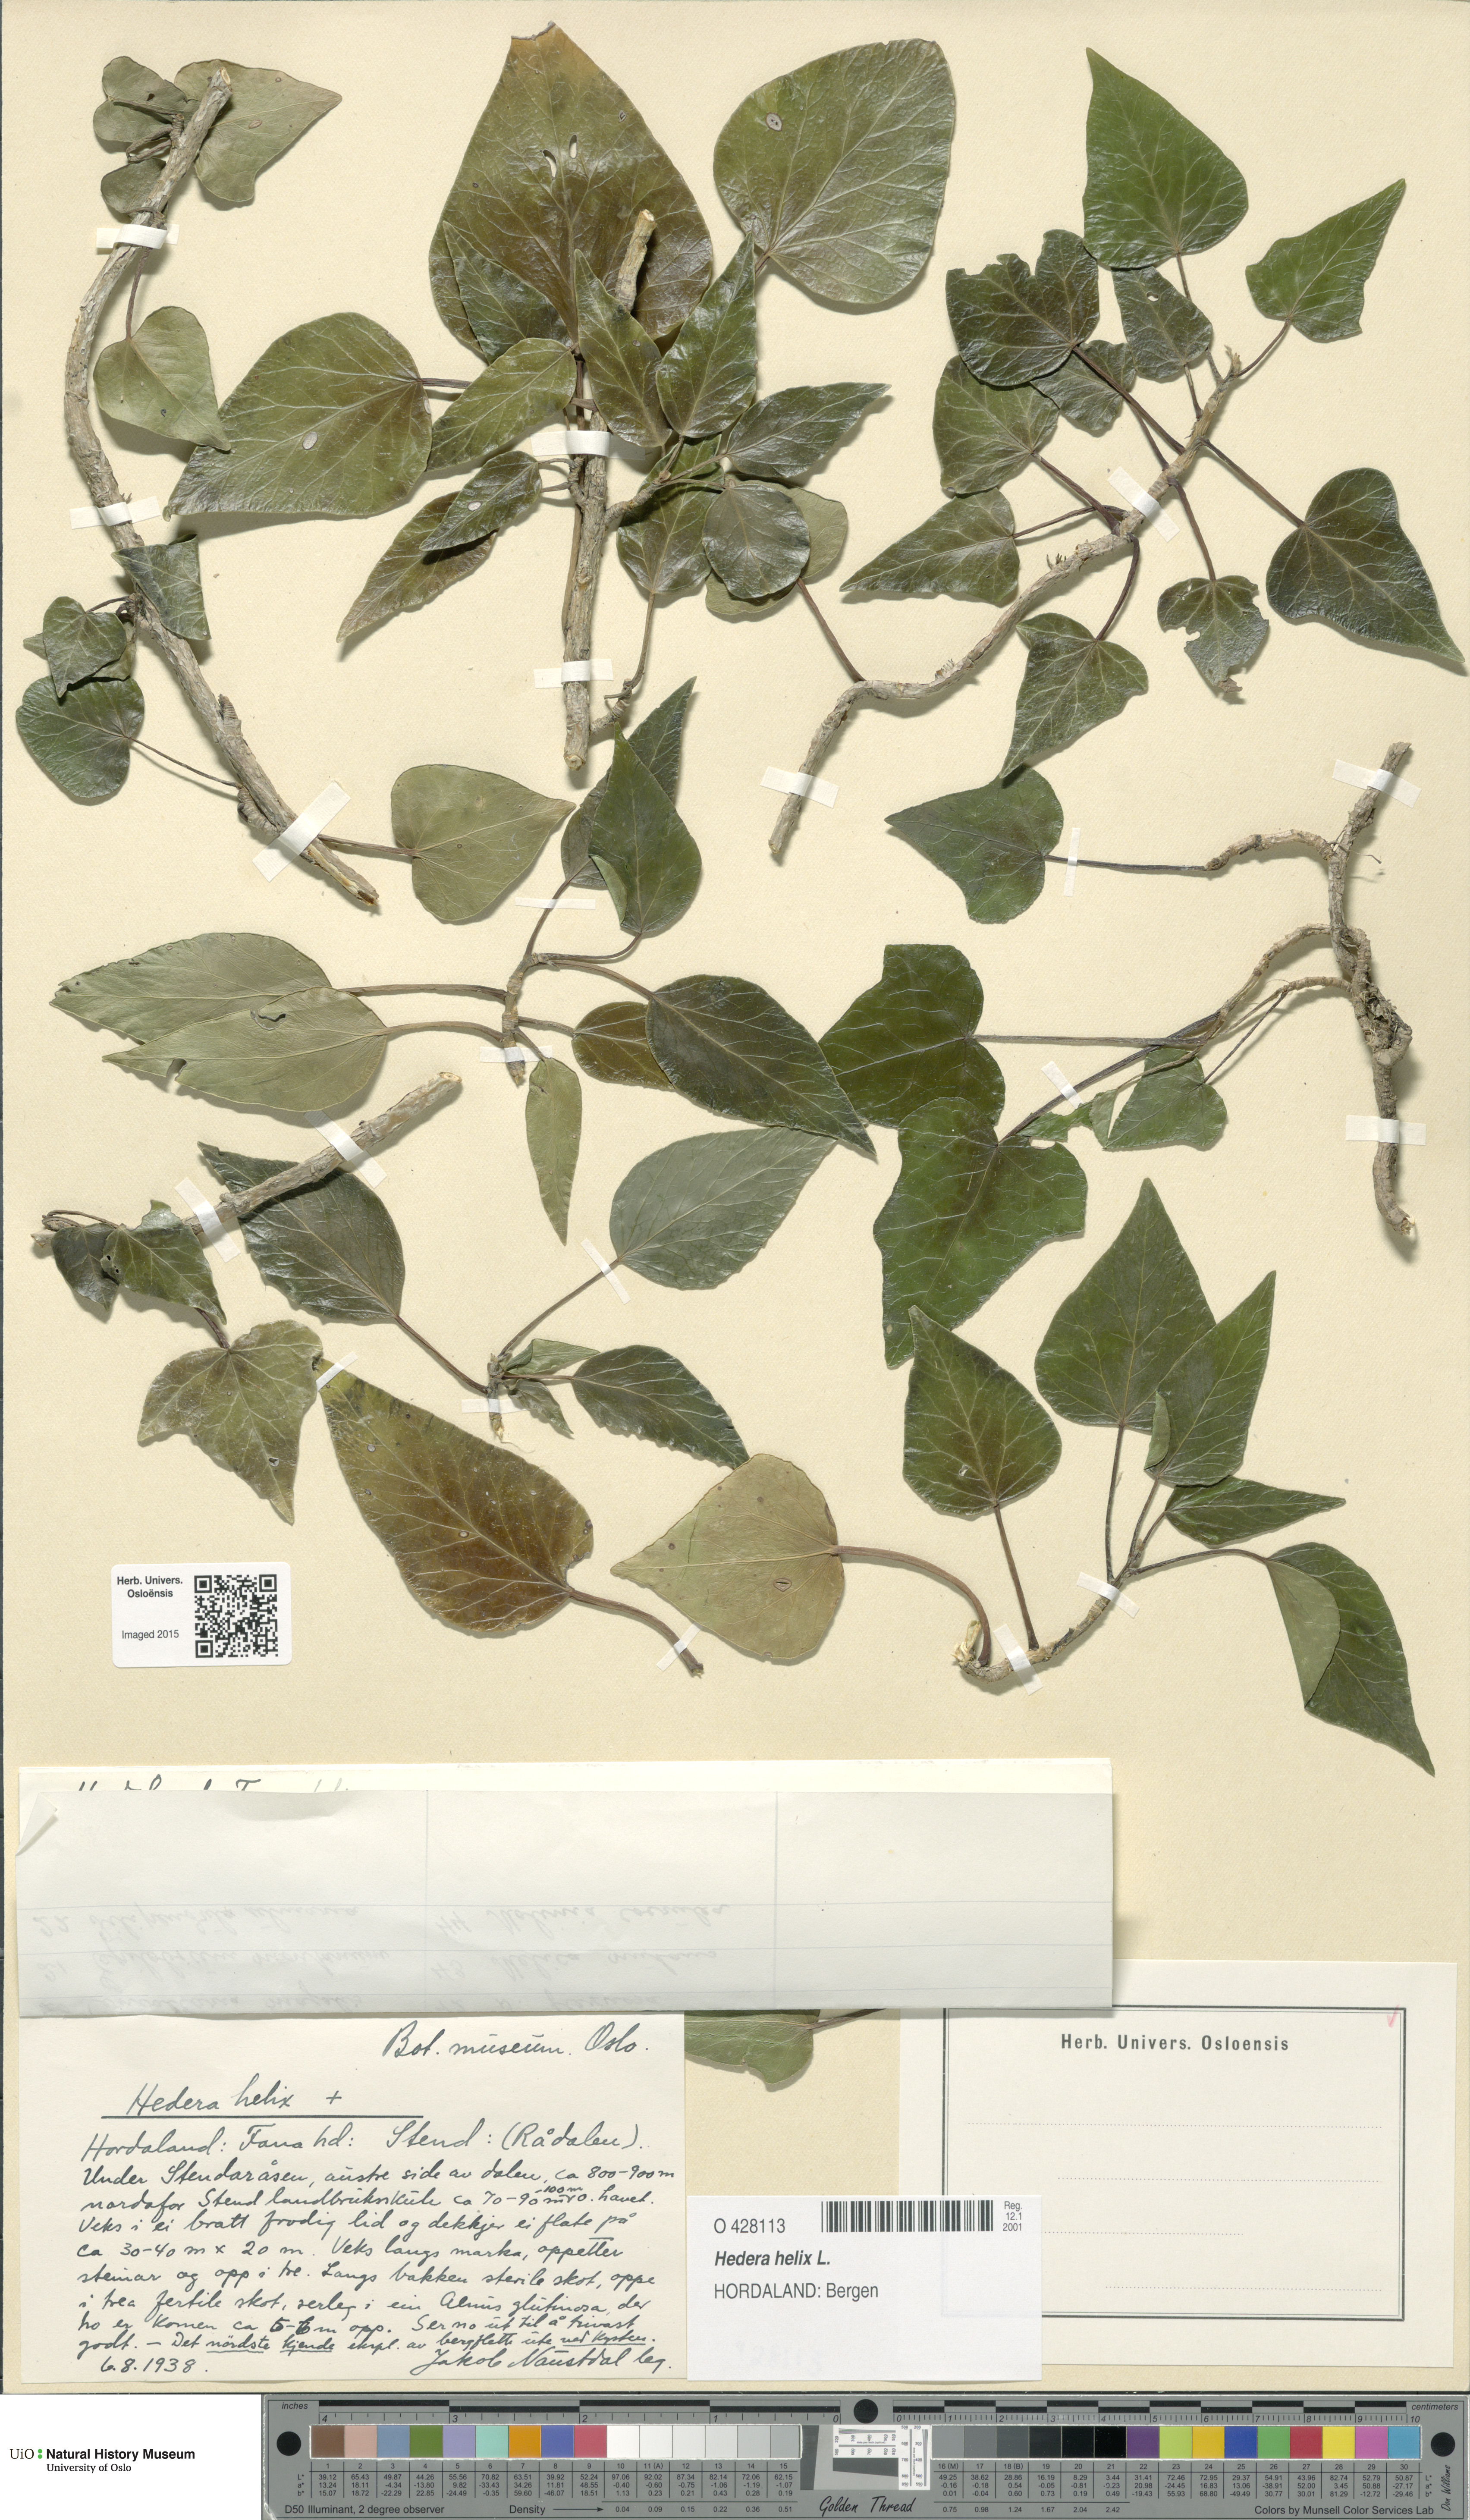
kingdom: Plantae
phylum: Tracheophyta
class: Magnoliopsida
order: Apiales
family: Araliaceae
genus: Hedera
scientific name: Hedera helix
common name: Ivy
